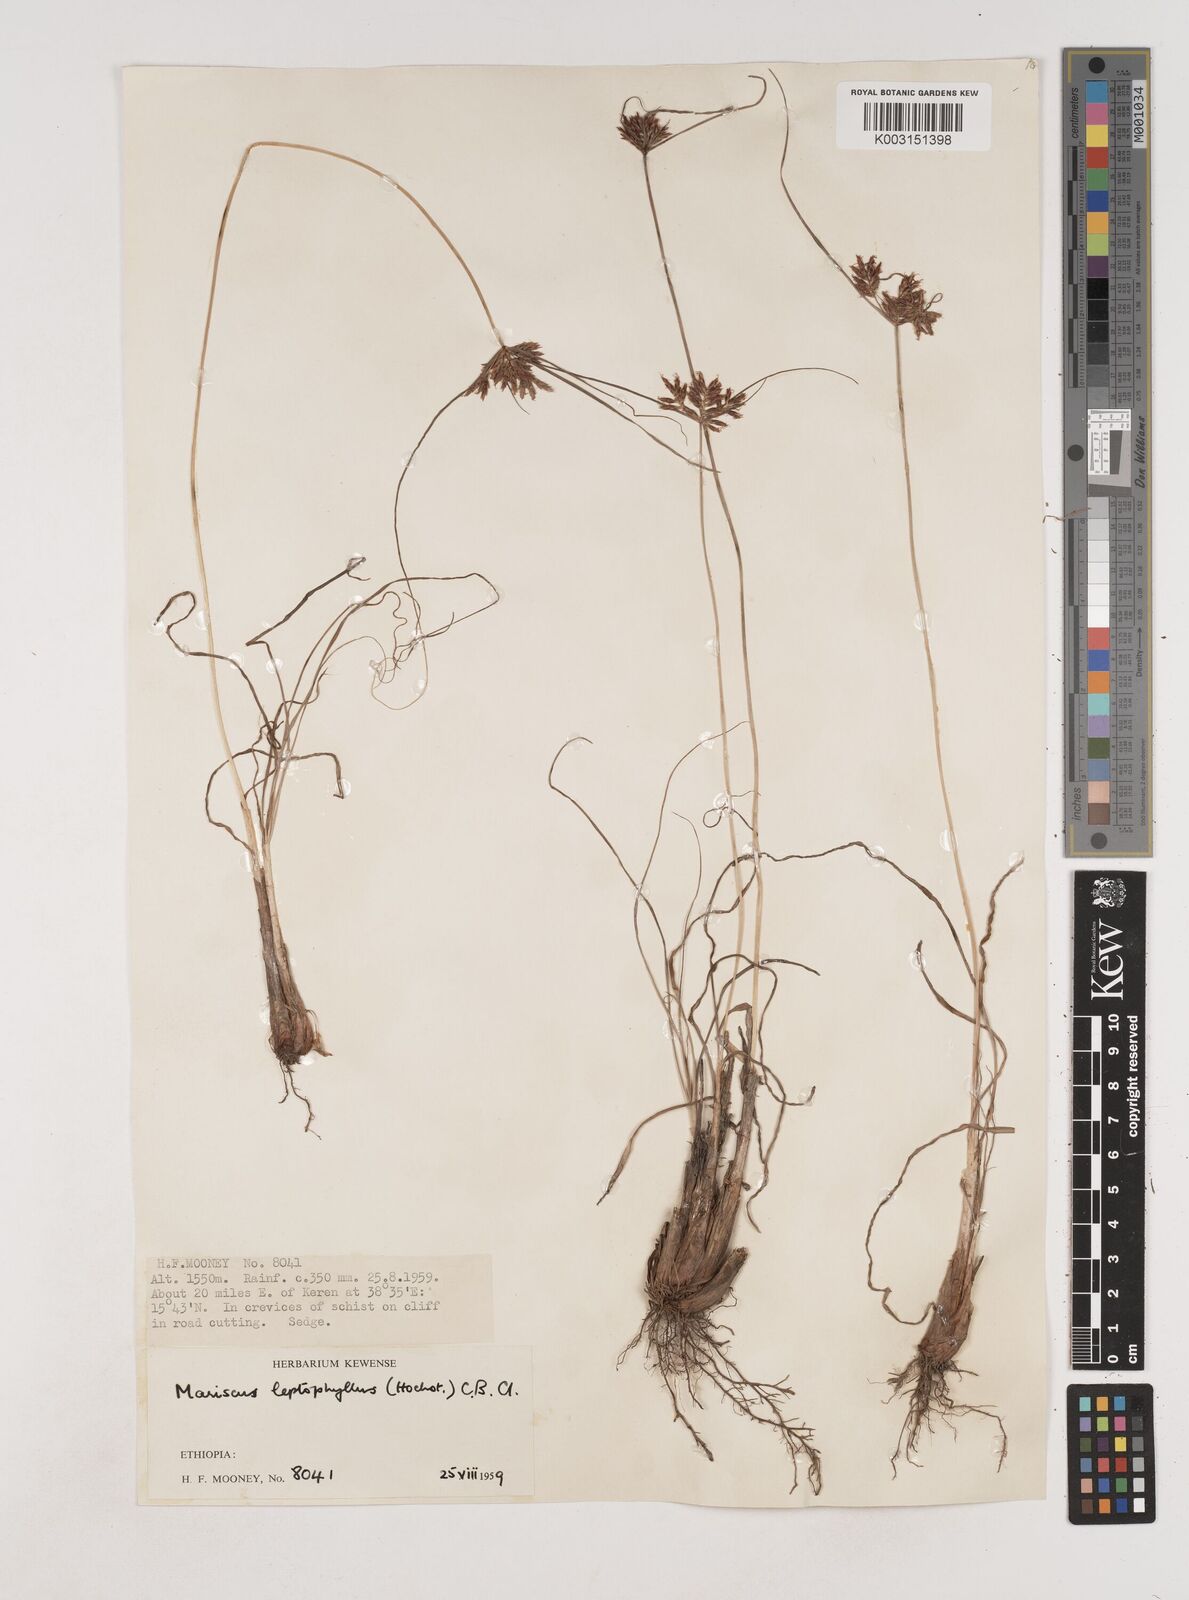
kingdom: Plantae
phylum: Tracheophyta
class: Liliopsida
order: Poales
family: Cyperaceae
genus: Cyperus
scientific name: Cyperus amauropus
